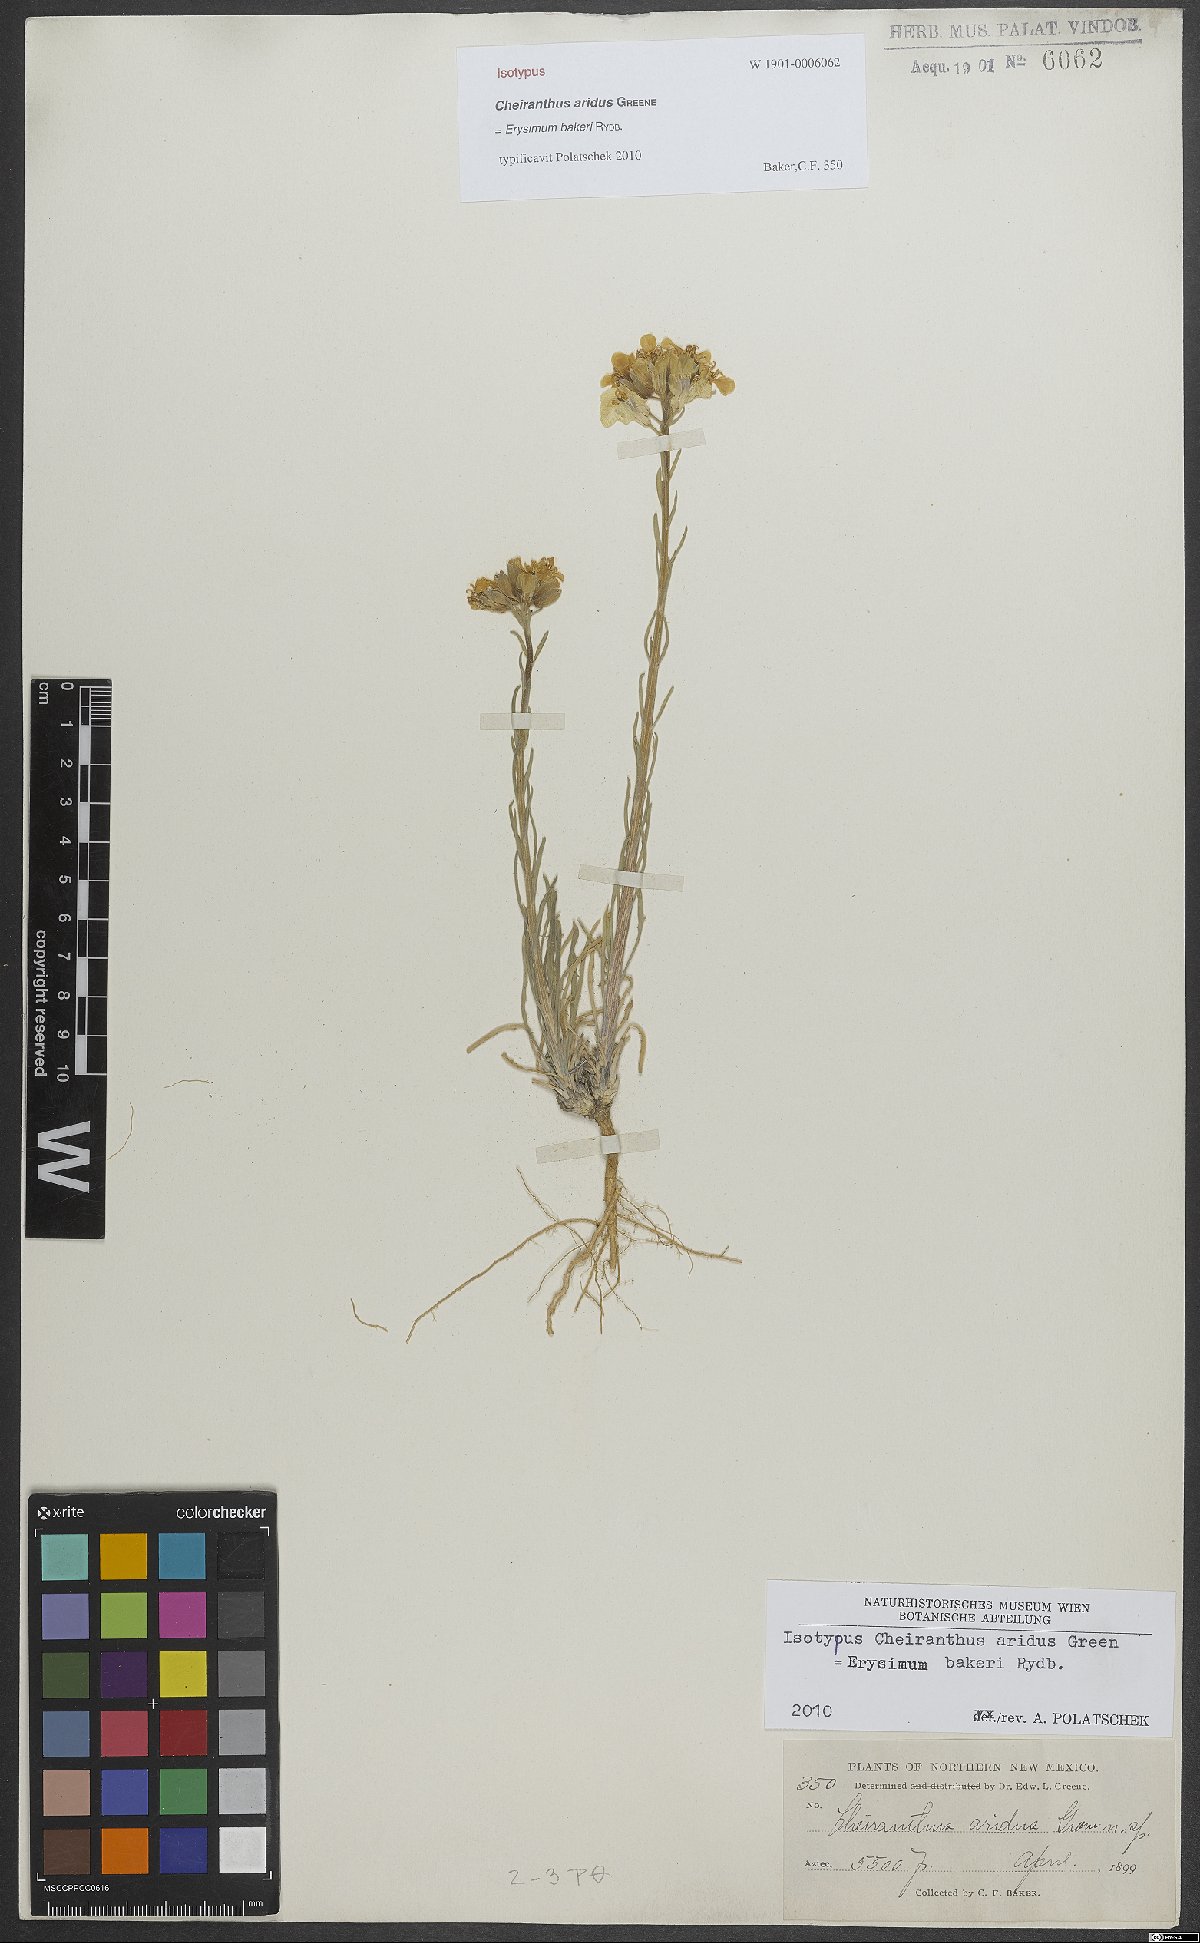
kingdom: Plantae
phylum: Tracheophyta
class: Magnoliopsida
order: Brassicales
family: Brassicaceae
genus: Erysimum
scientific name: Erysimum capitatum
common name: Western wallflower
